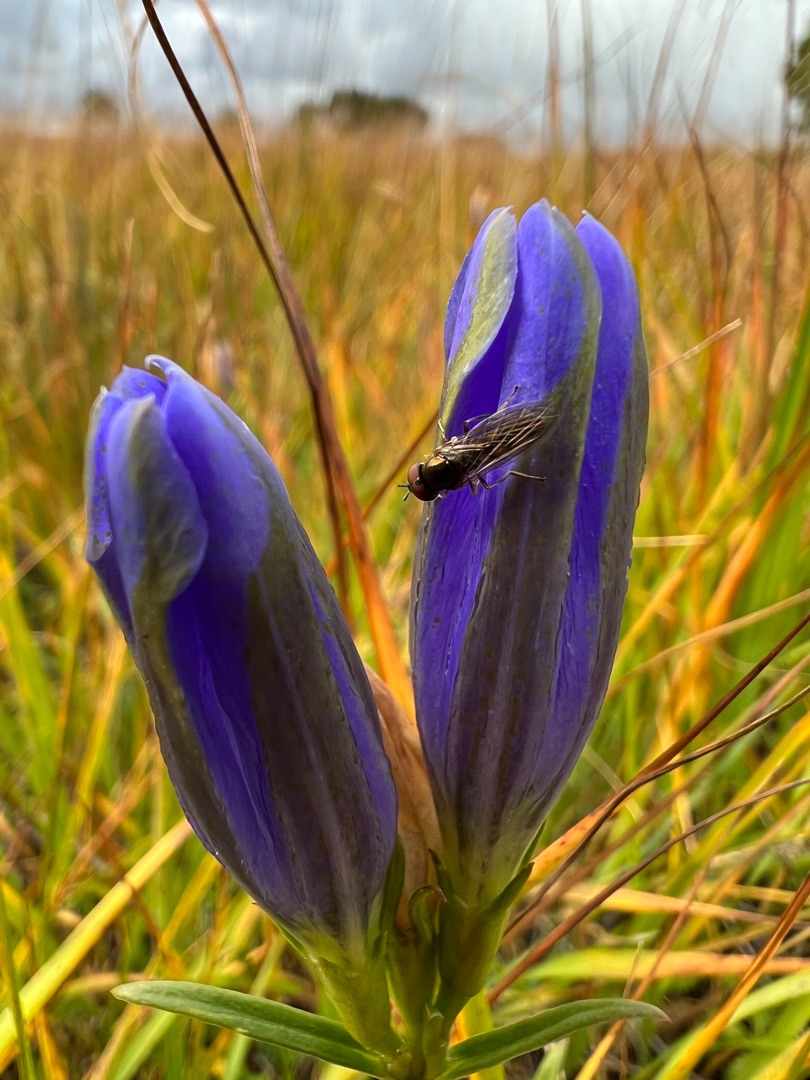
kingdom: Plantae
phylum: Tracheophyta
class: Magnoliopsida
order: Gentianales
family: Gentianaceae
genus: Gentiana
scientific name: Gentiana pneumonanthe
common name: Klokke-ensian
